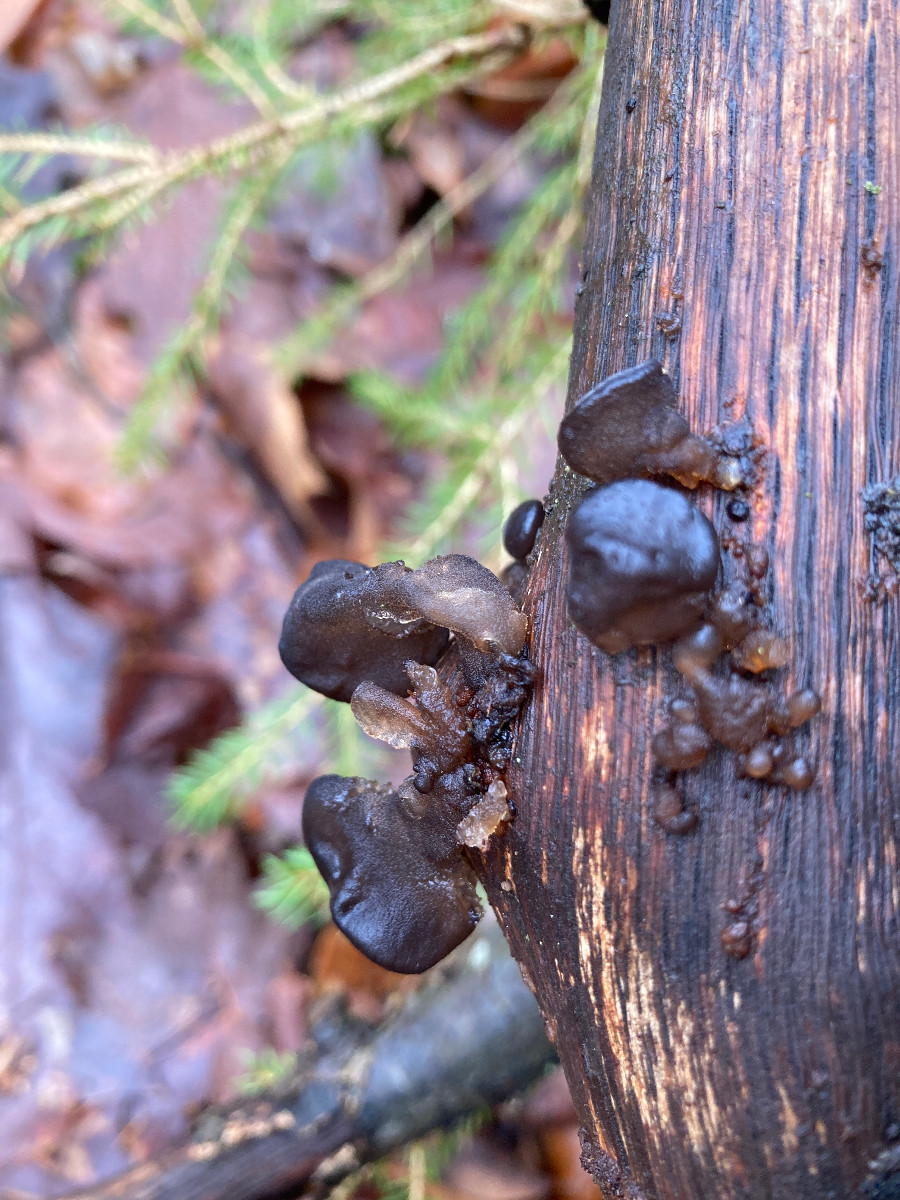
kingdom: Fungi
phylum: Basidiomycota
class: Agaricomycetes
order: Auriculariales
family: Auriculariaceae
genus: Exidia
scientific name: Exidia glandulosa
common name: ege-bævretop
